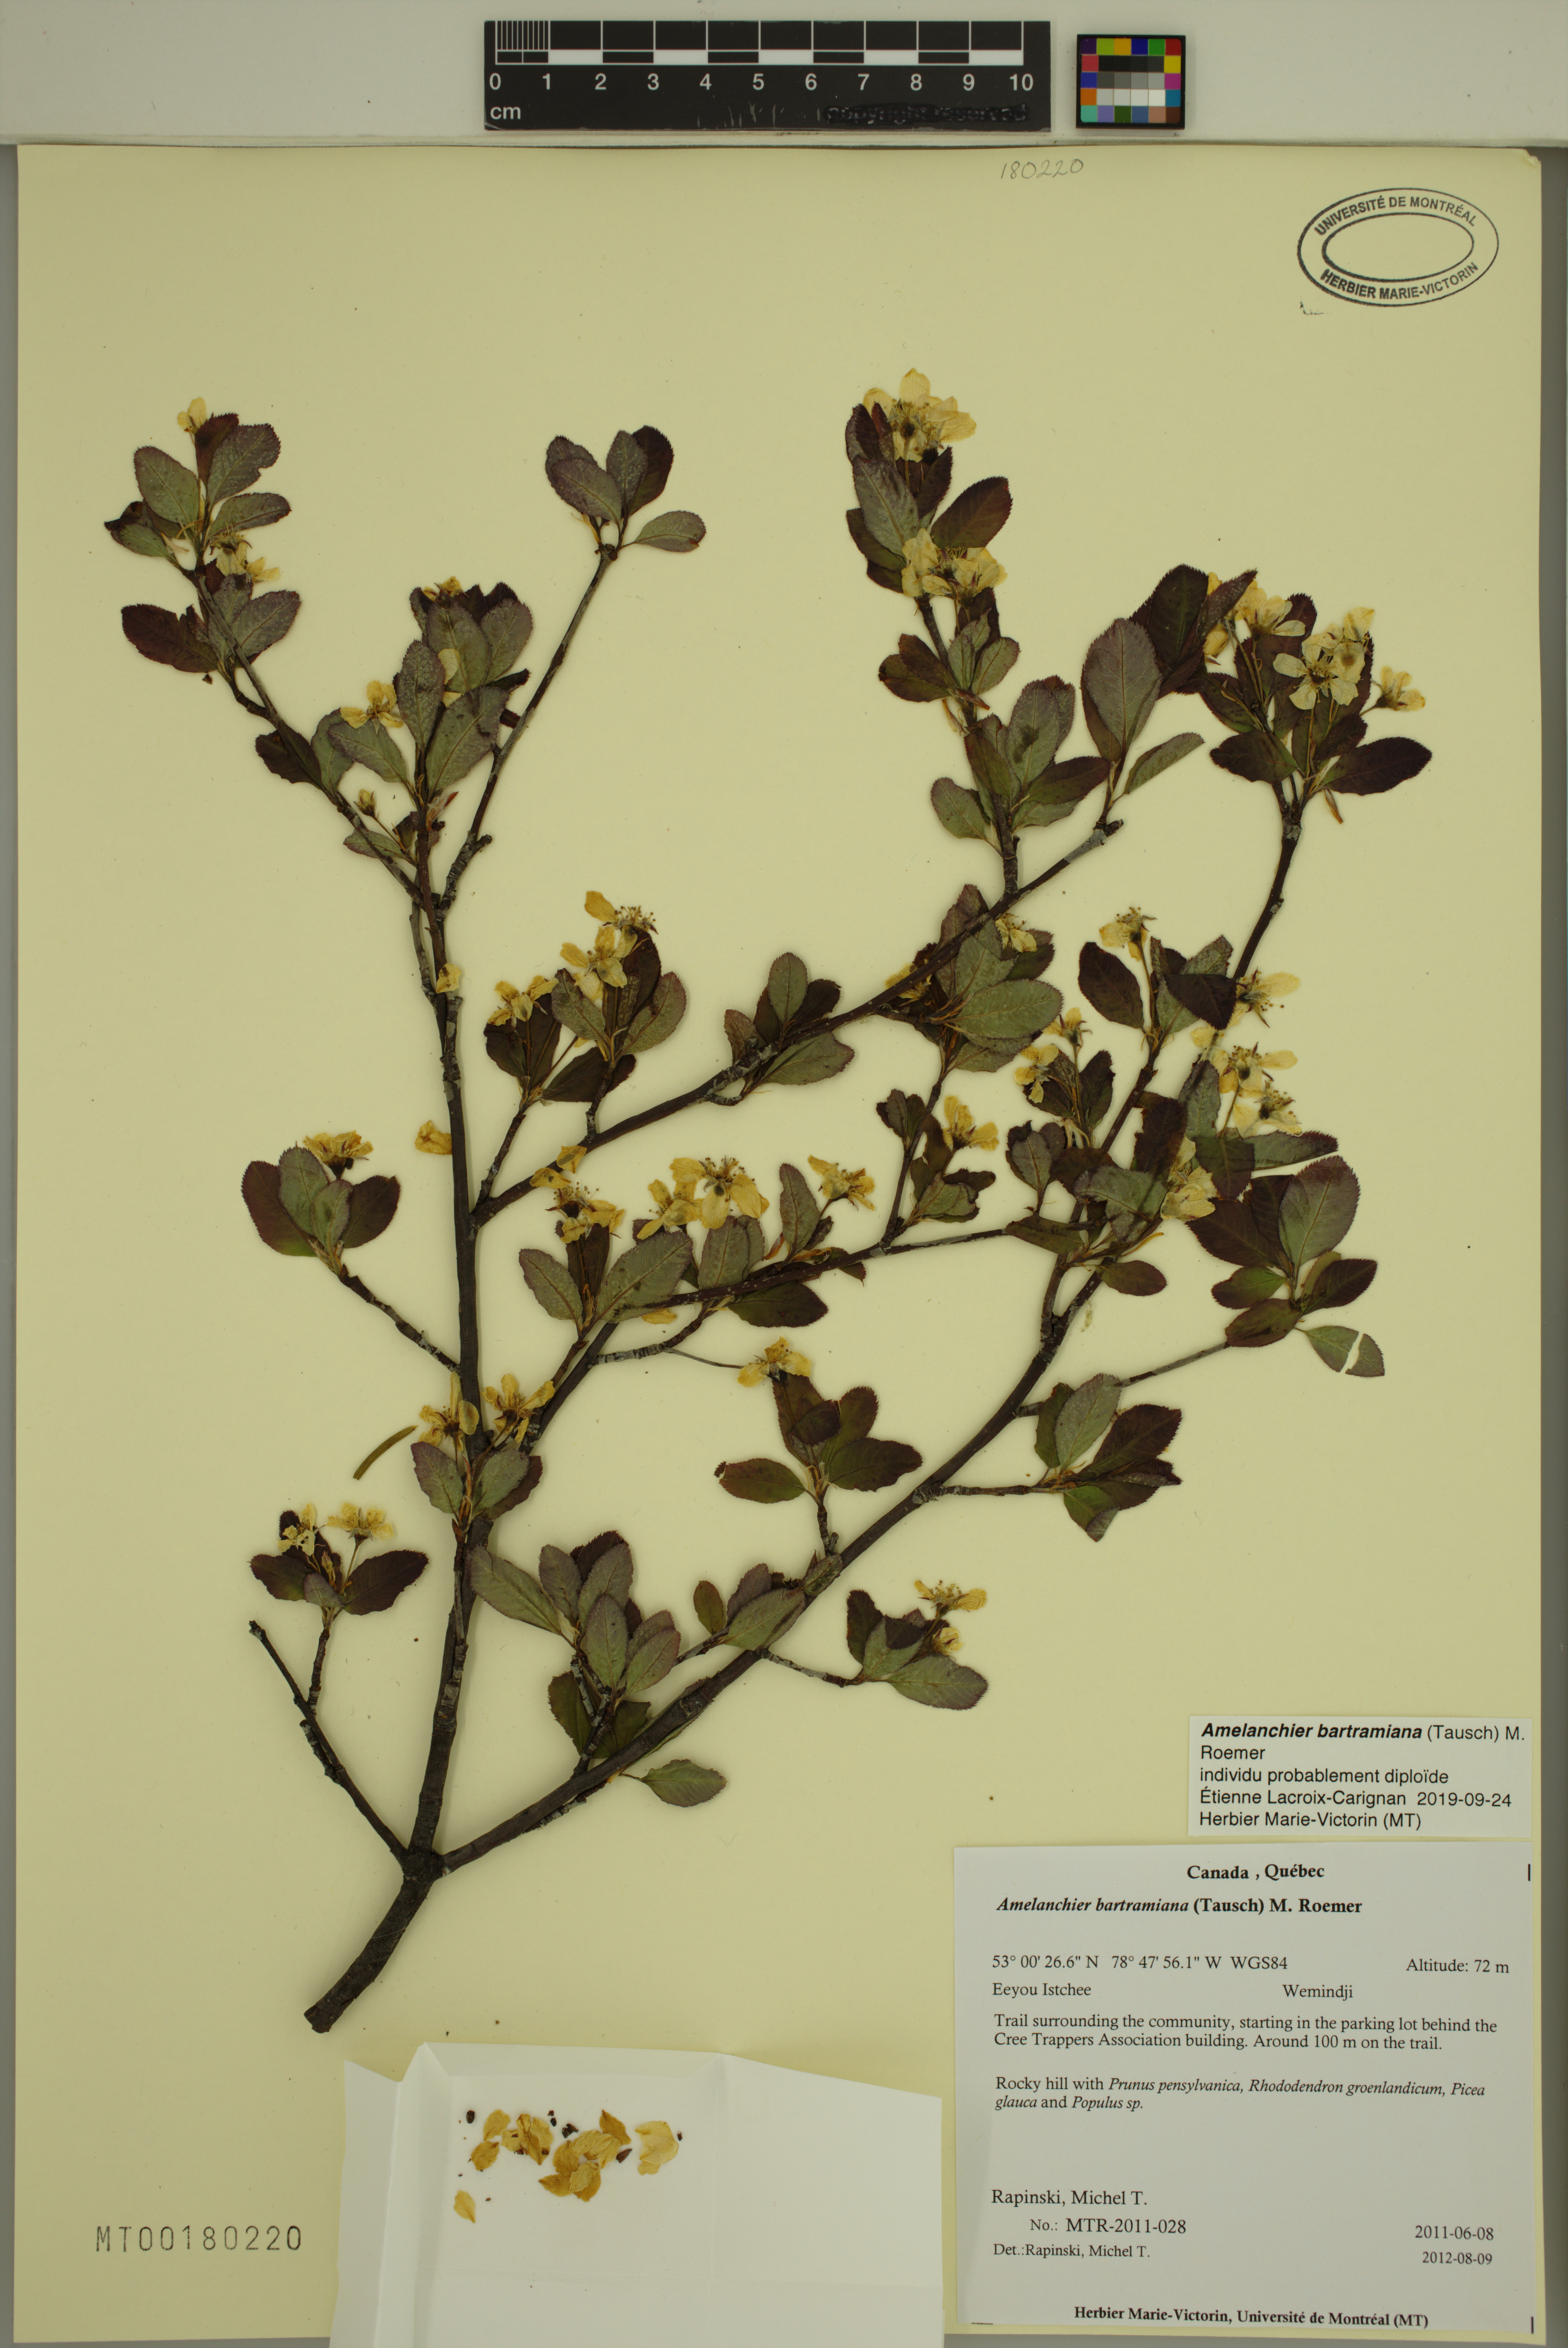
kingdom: Plantae
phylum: Tracheophyta
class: Magnoliopsida
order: Rosales
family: Rosaceae
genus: Amelanchier
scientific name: Amelanchier bartramiana
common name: Mountain serviceberry
